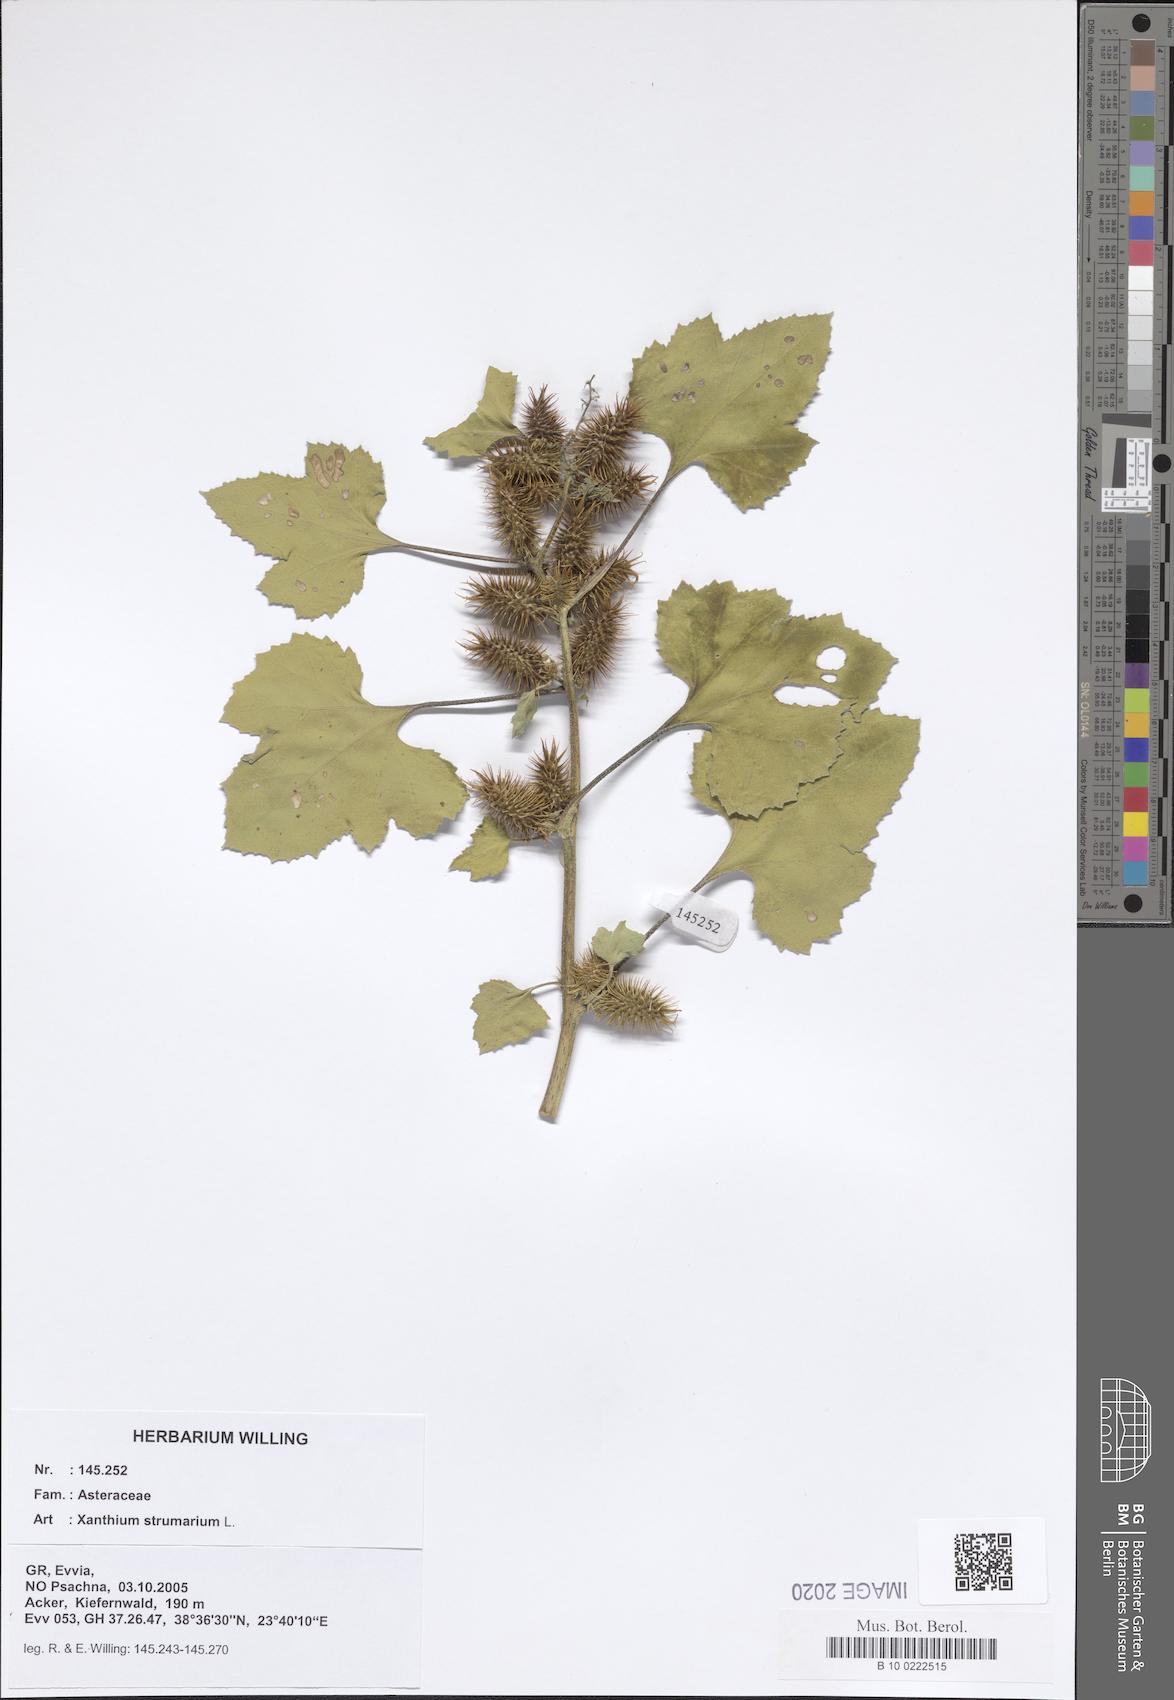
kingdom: Plantae
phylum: Tracheophyta
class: Magnoliopsida
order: Asterales
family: Asteraceae
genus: Xanthium
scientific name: Xanthium strumarium
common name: Rough cocklebur
